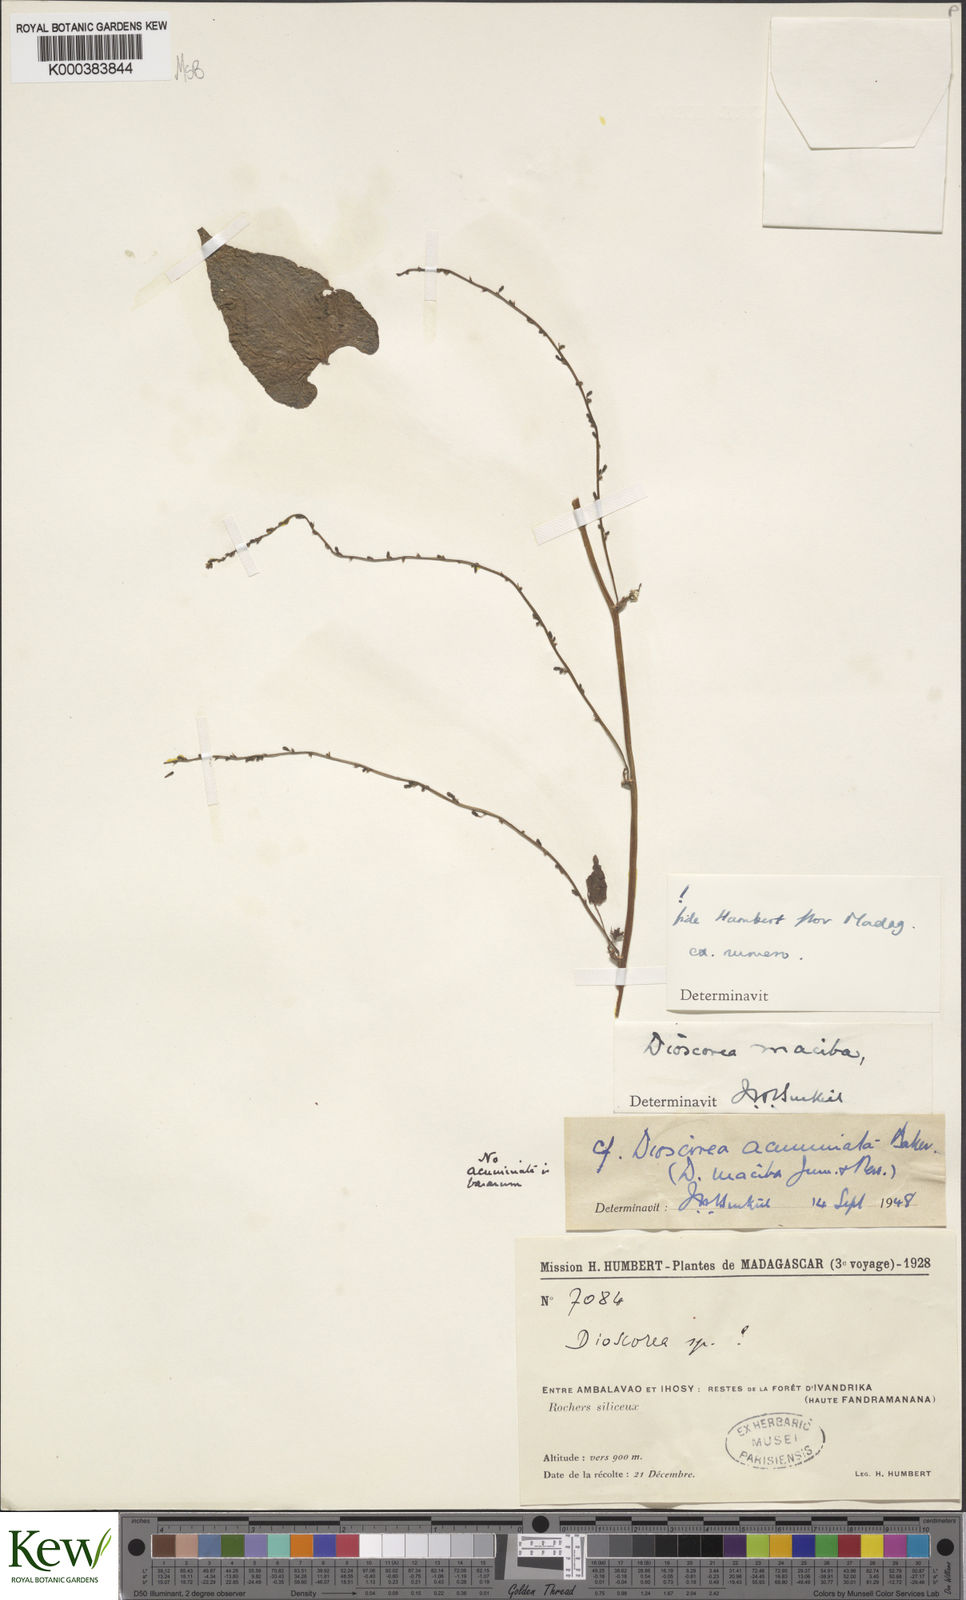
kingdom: Plantae
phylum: Tracheophyta
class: Liliopsida
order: Dioscoreales
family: Dioscoreaceae
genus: Dioscorea
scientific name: Dioscorea
